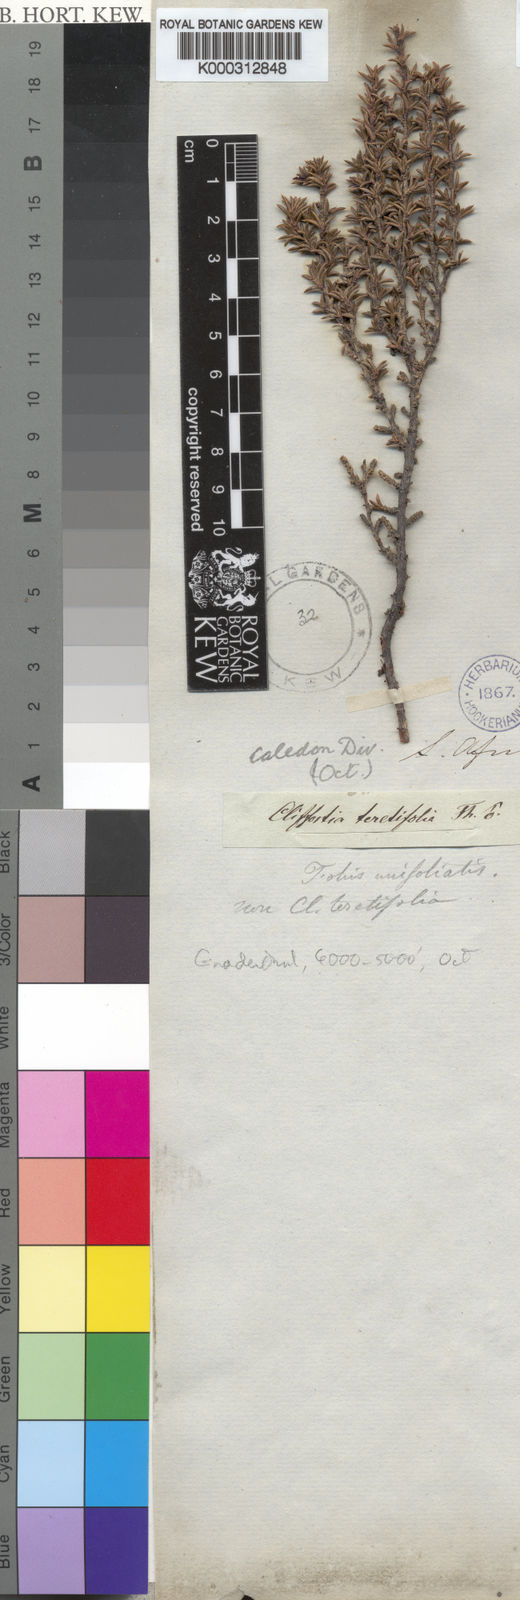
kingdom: Plantae
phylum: Tracheophyta
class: Magnoliopsida
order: Rosales
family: Rosaceae
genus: Cliffortia
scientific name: Cliffortia pungens
